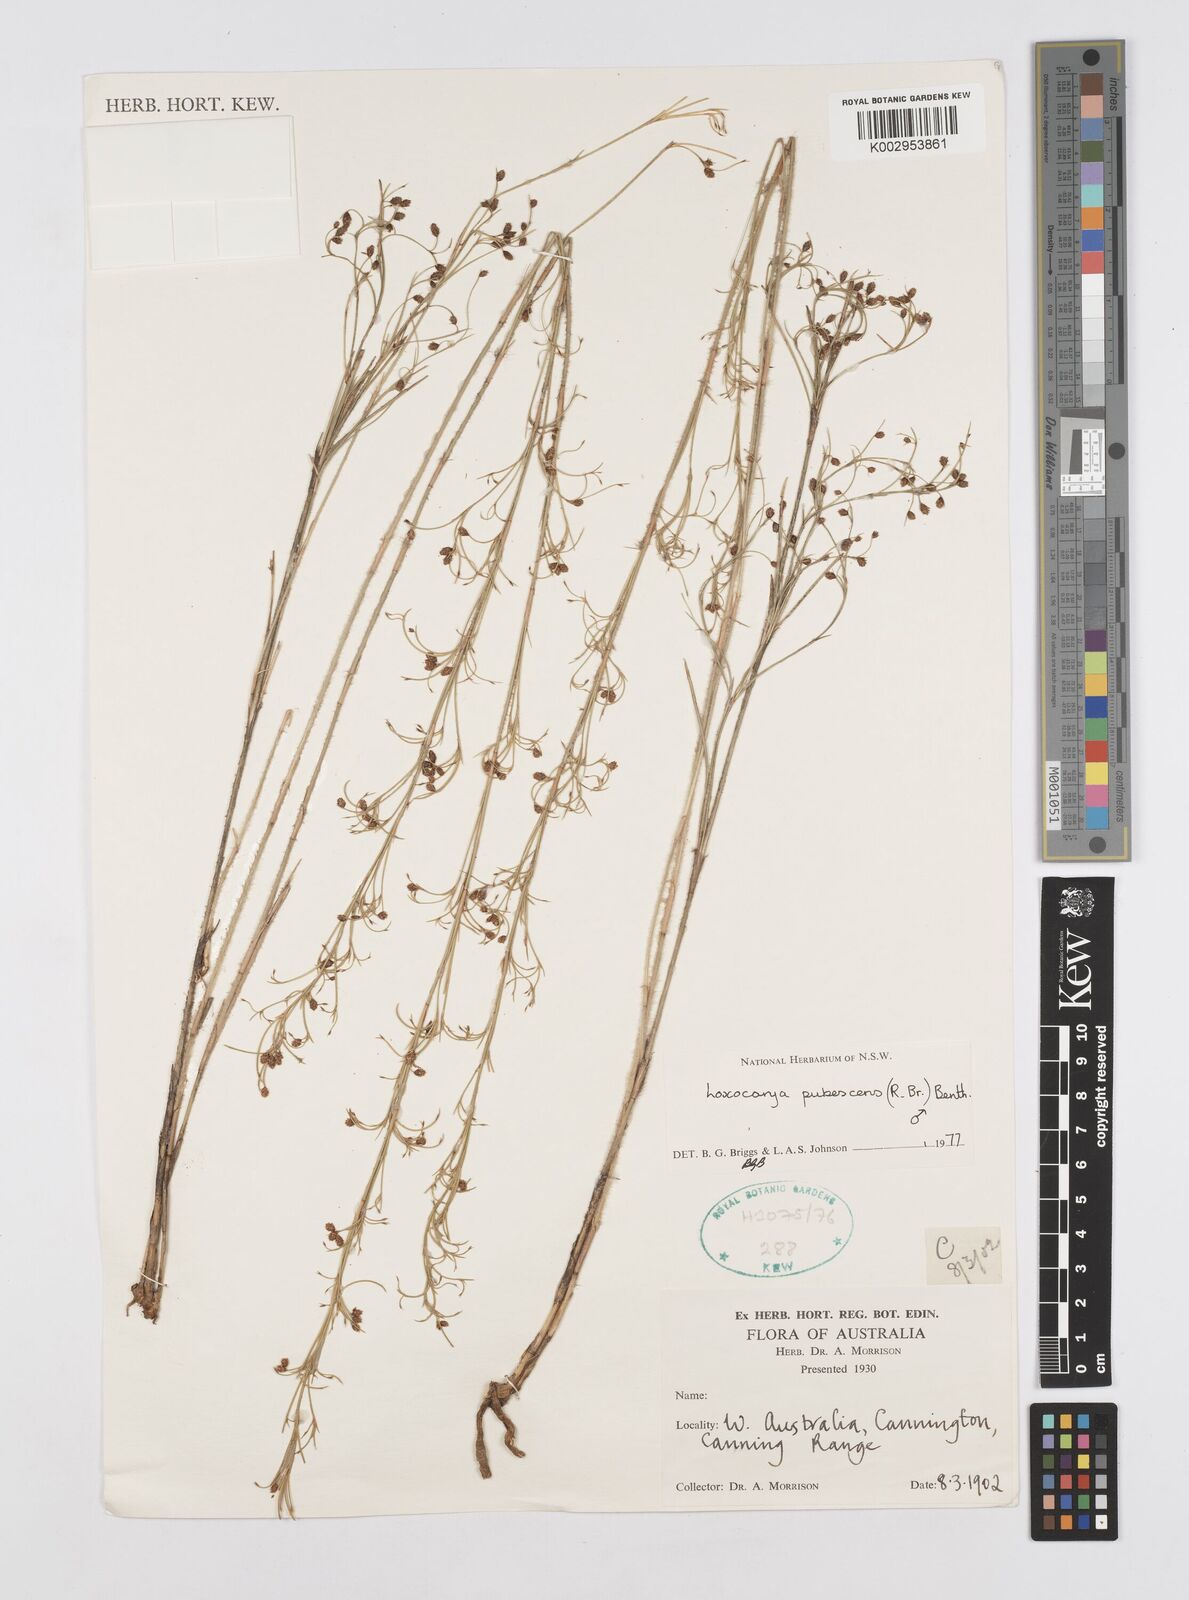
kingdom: Plantae
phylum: Tracheophyta
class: Liliopsida
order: Poales
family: Restionaceae
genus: Hypolaena
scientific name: Hypolaena pubescens
